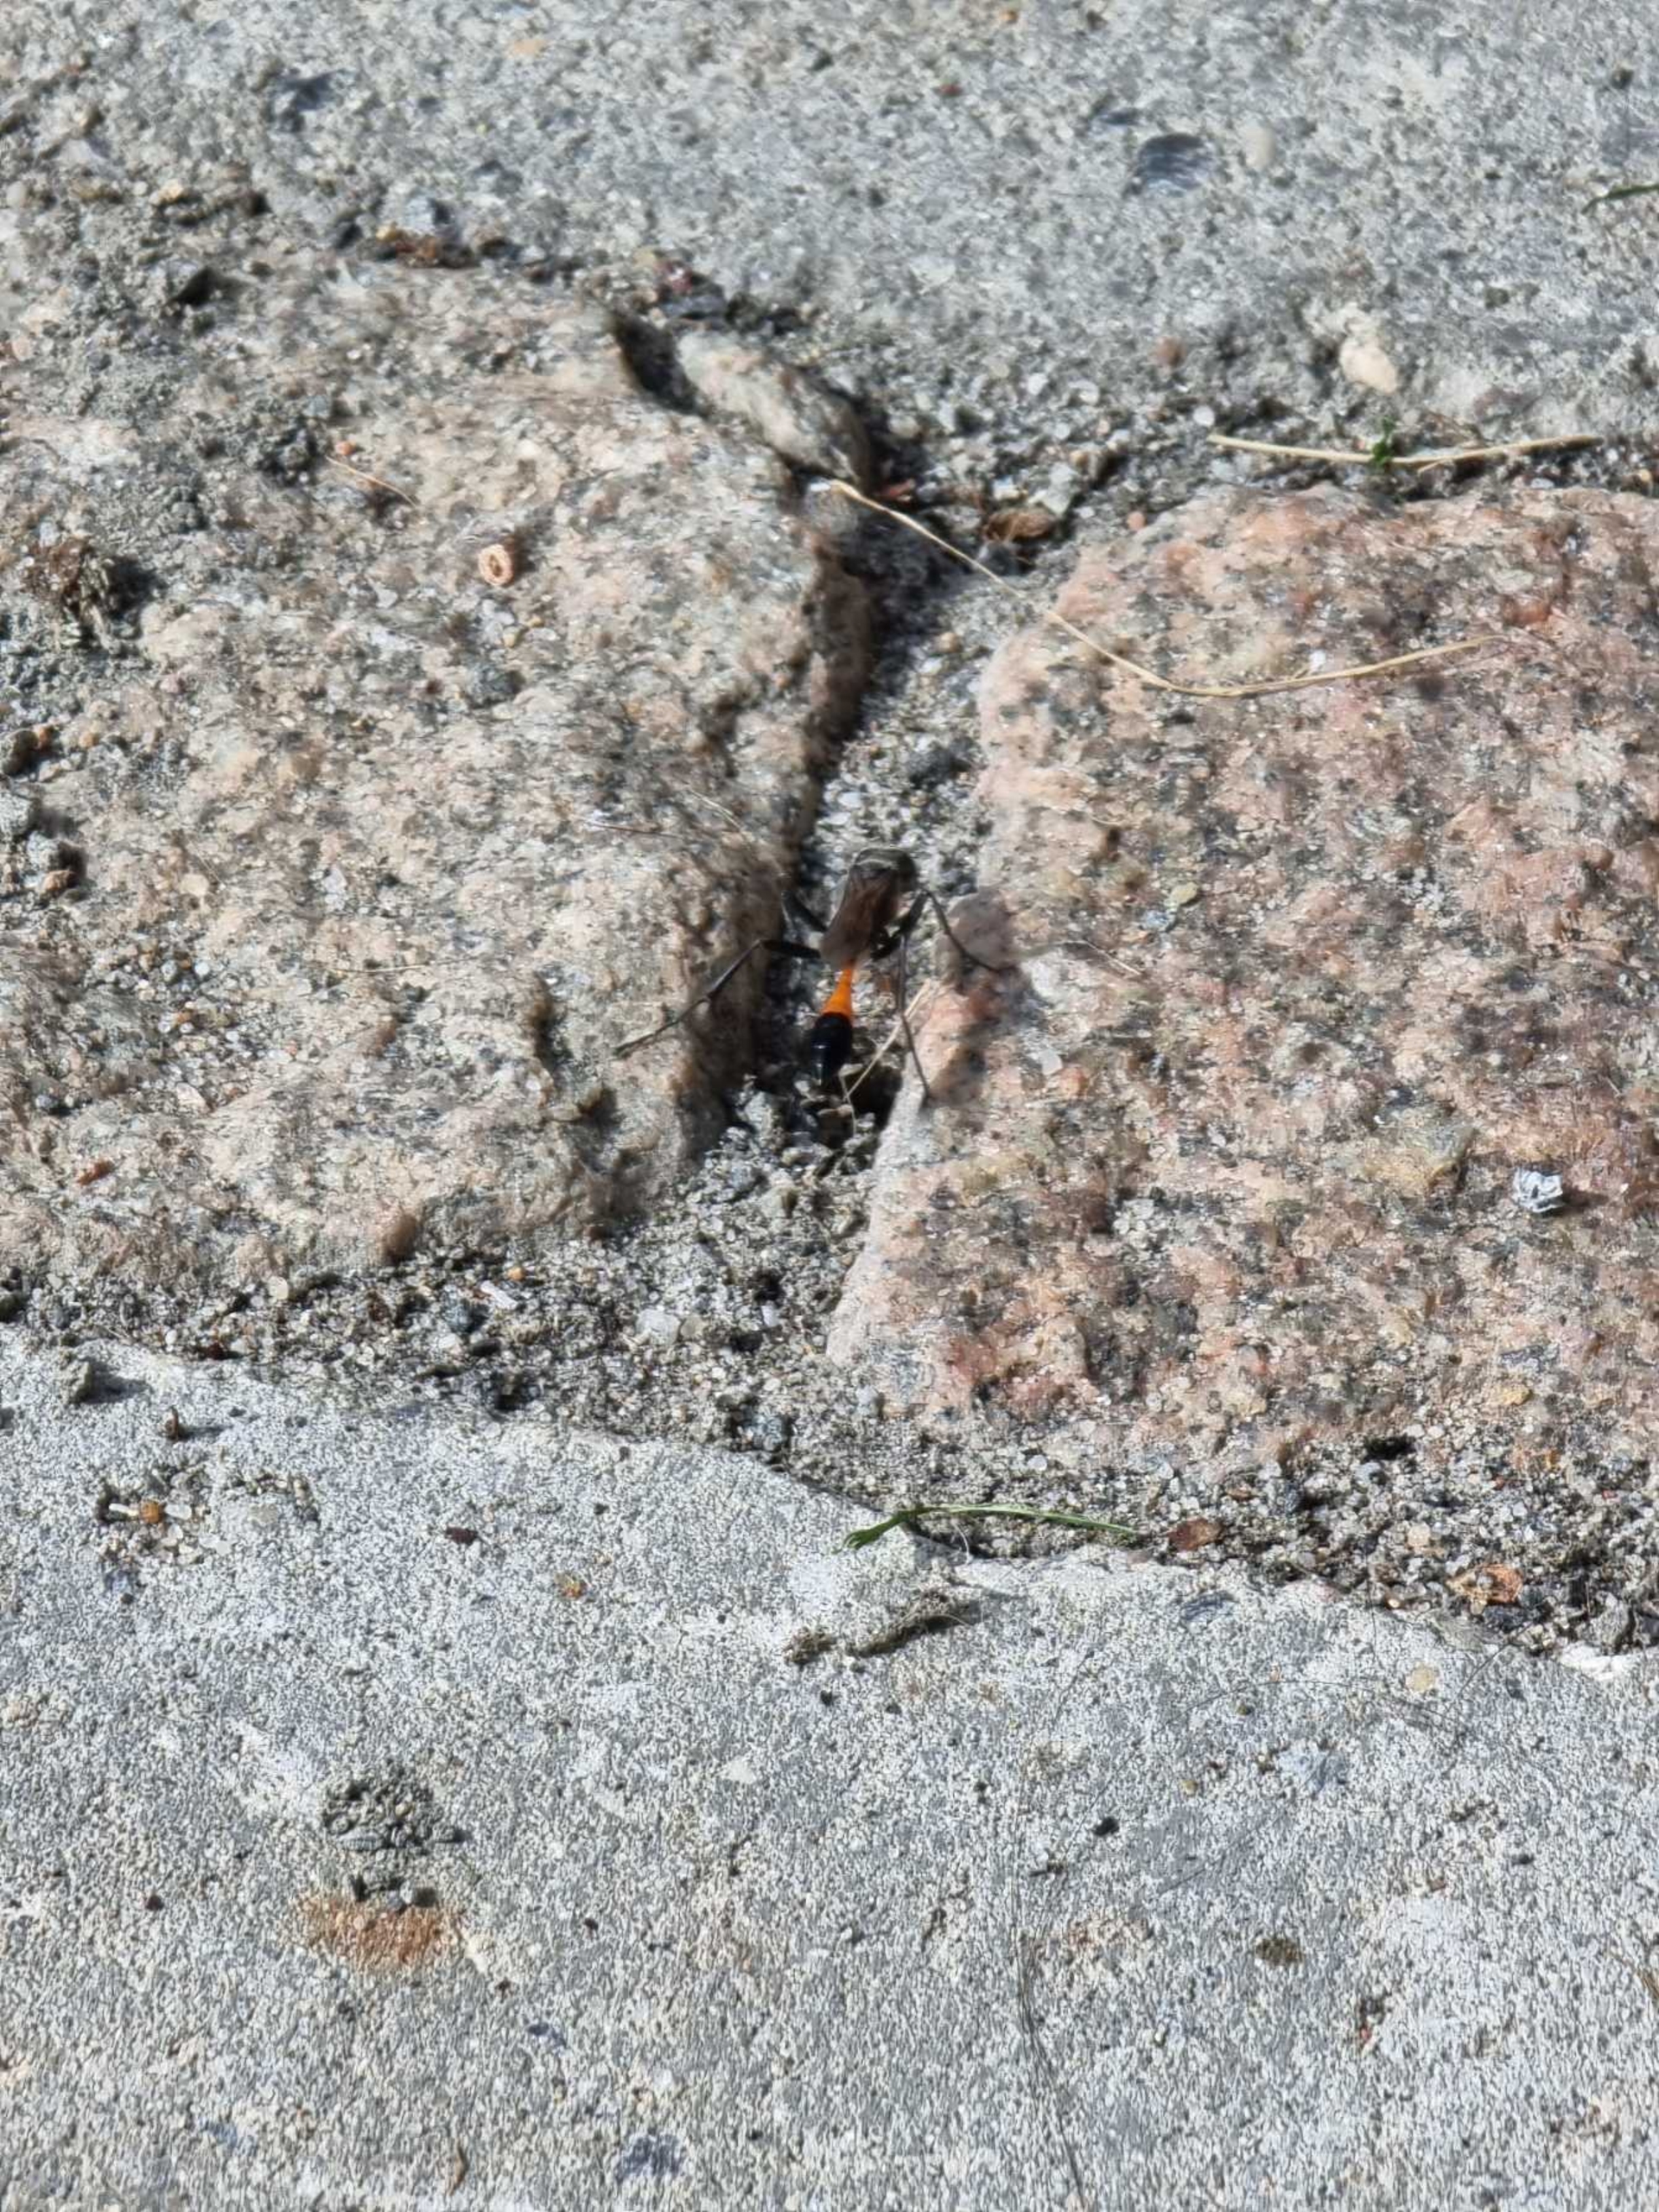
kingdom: Animalia
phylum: Arthropoda
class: Insecta
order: Hymenoptera
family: Sphecidae
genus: Ammophila
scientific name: Ammophila
